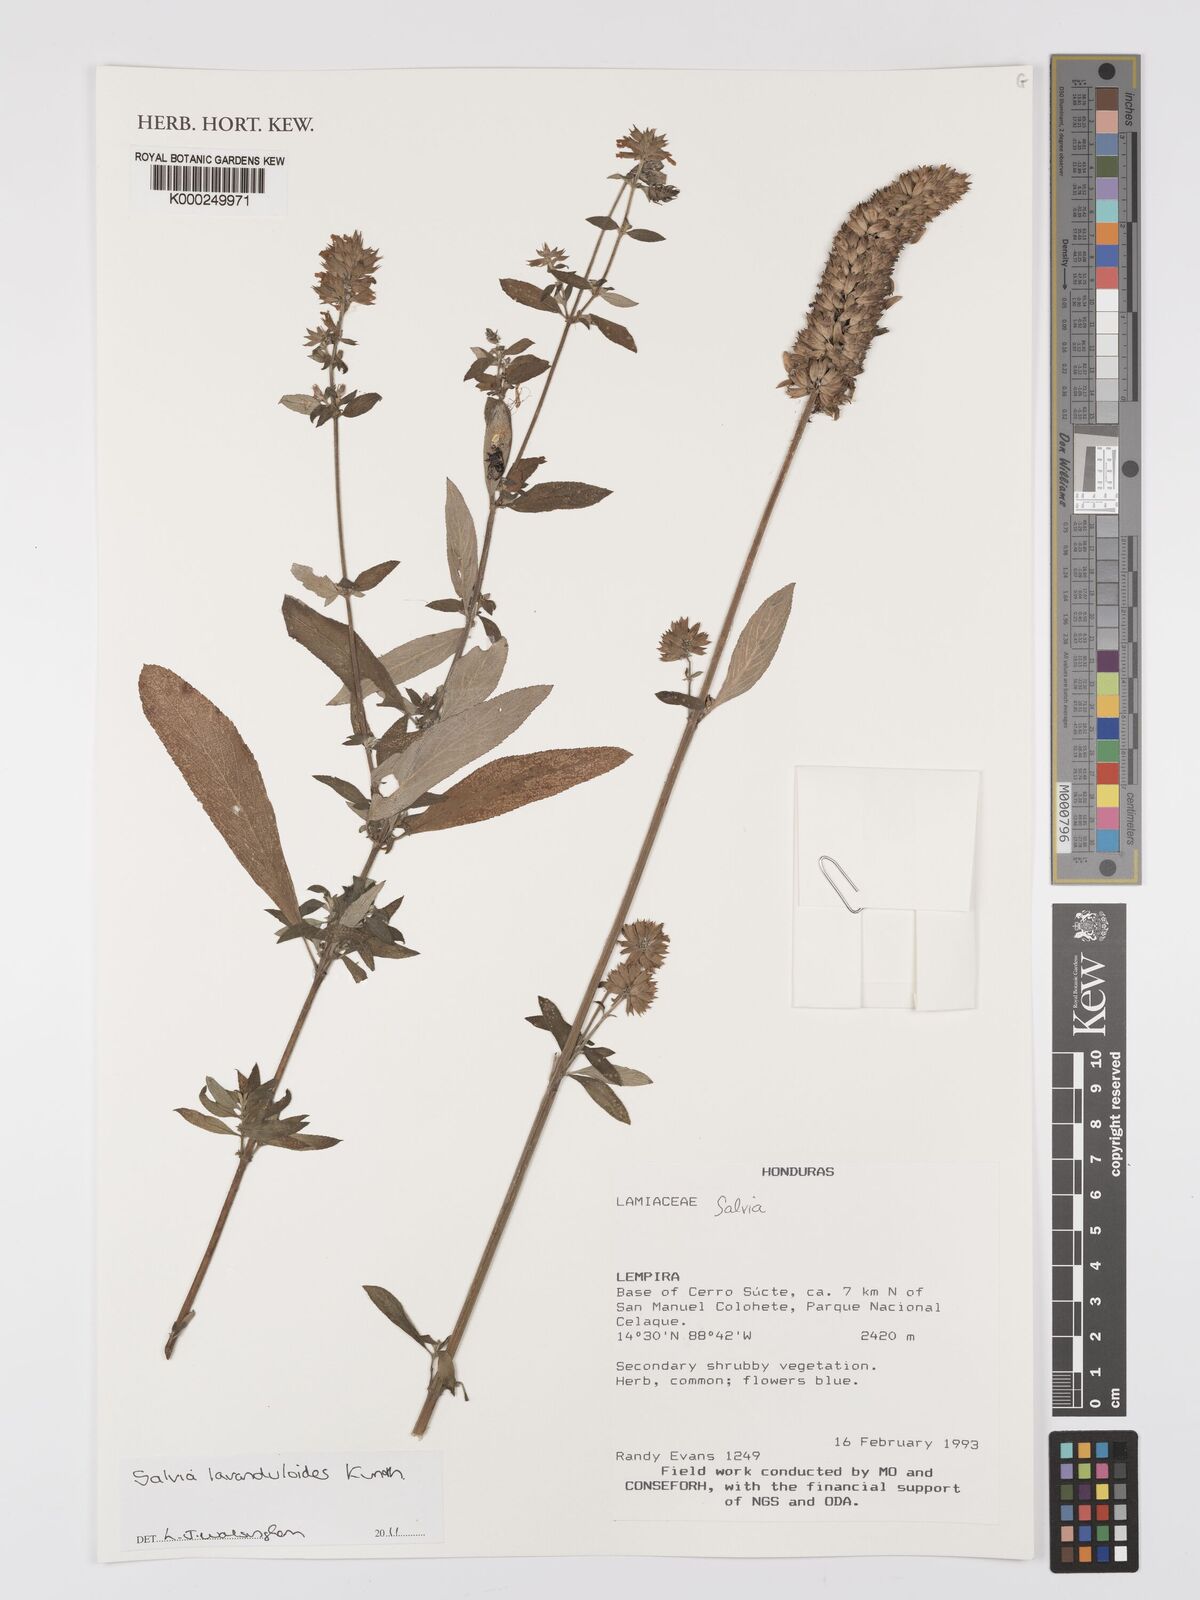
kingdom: Plantae
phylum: Tracheophyta
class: Magnoliopsida
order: Lamiales
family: Lamiaceae
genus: Salvia
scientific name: Salvia lavanduloides
